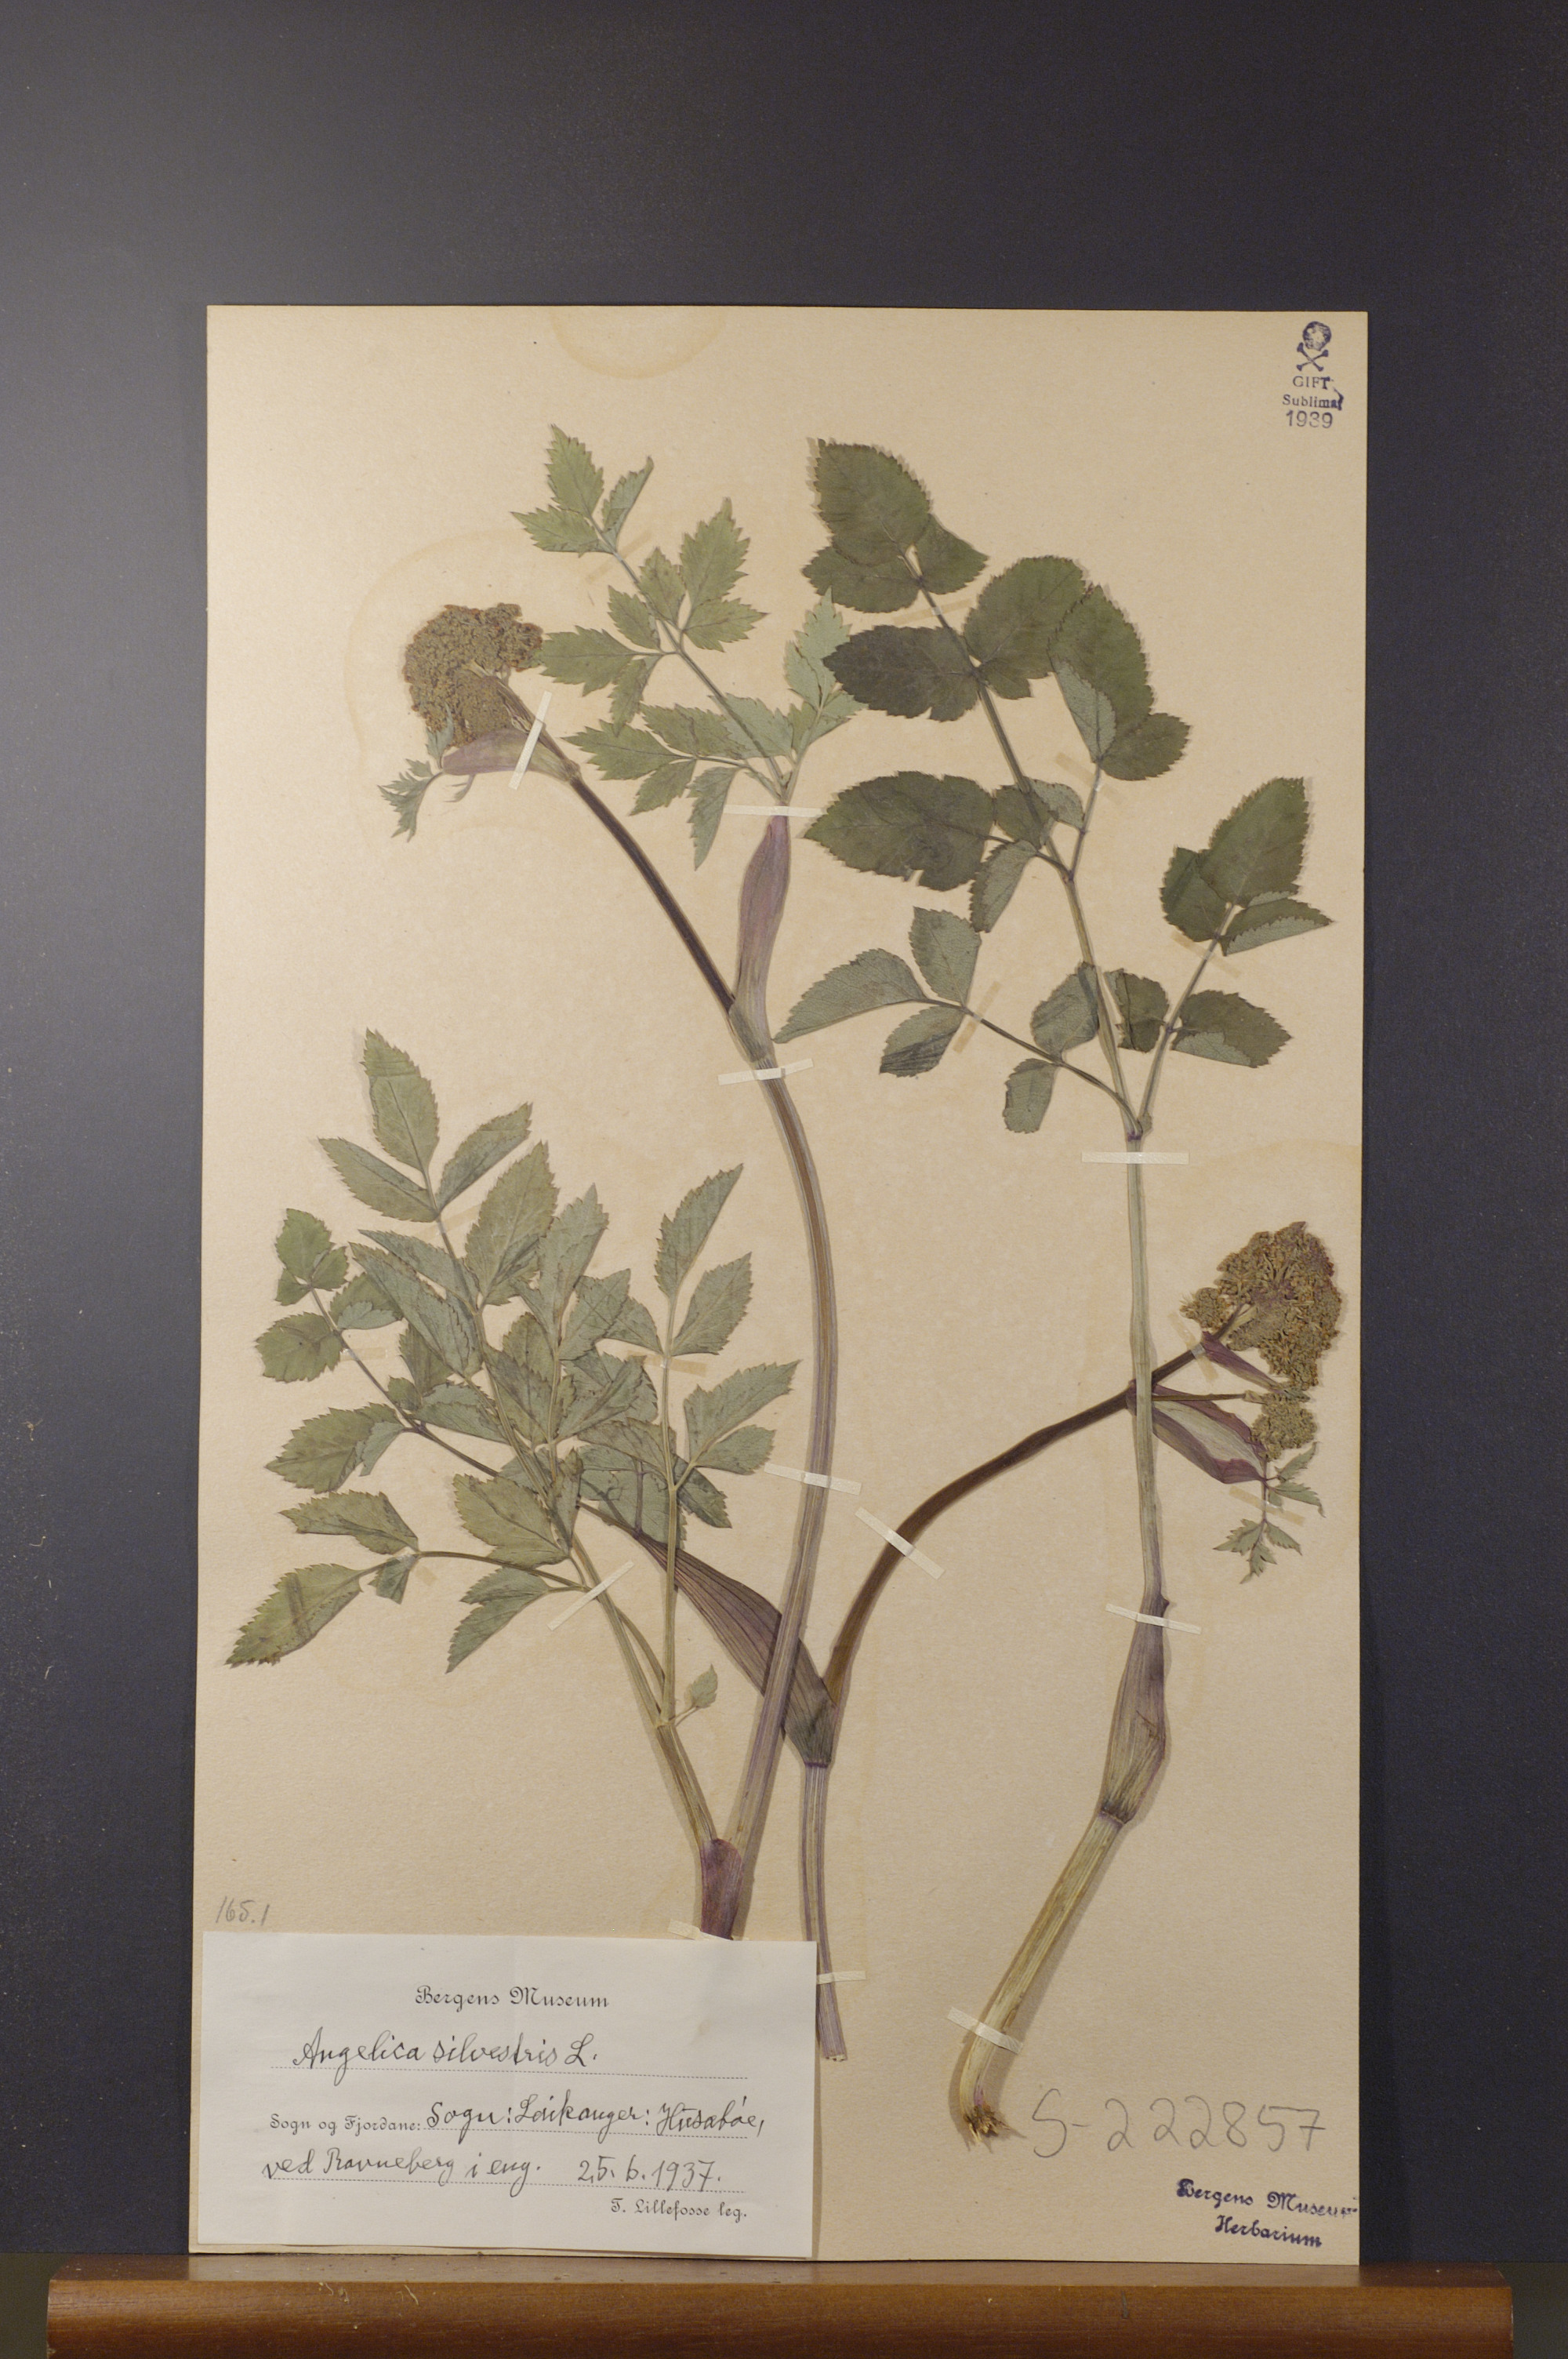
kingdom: Plantae
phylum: Tracheophyta
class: Magnoliopsida
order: Apiales
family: Apiaceae
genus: Angelica
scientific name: Angelica sylvestris
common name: Wild angelica
